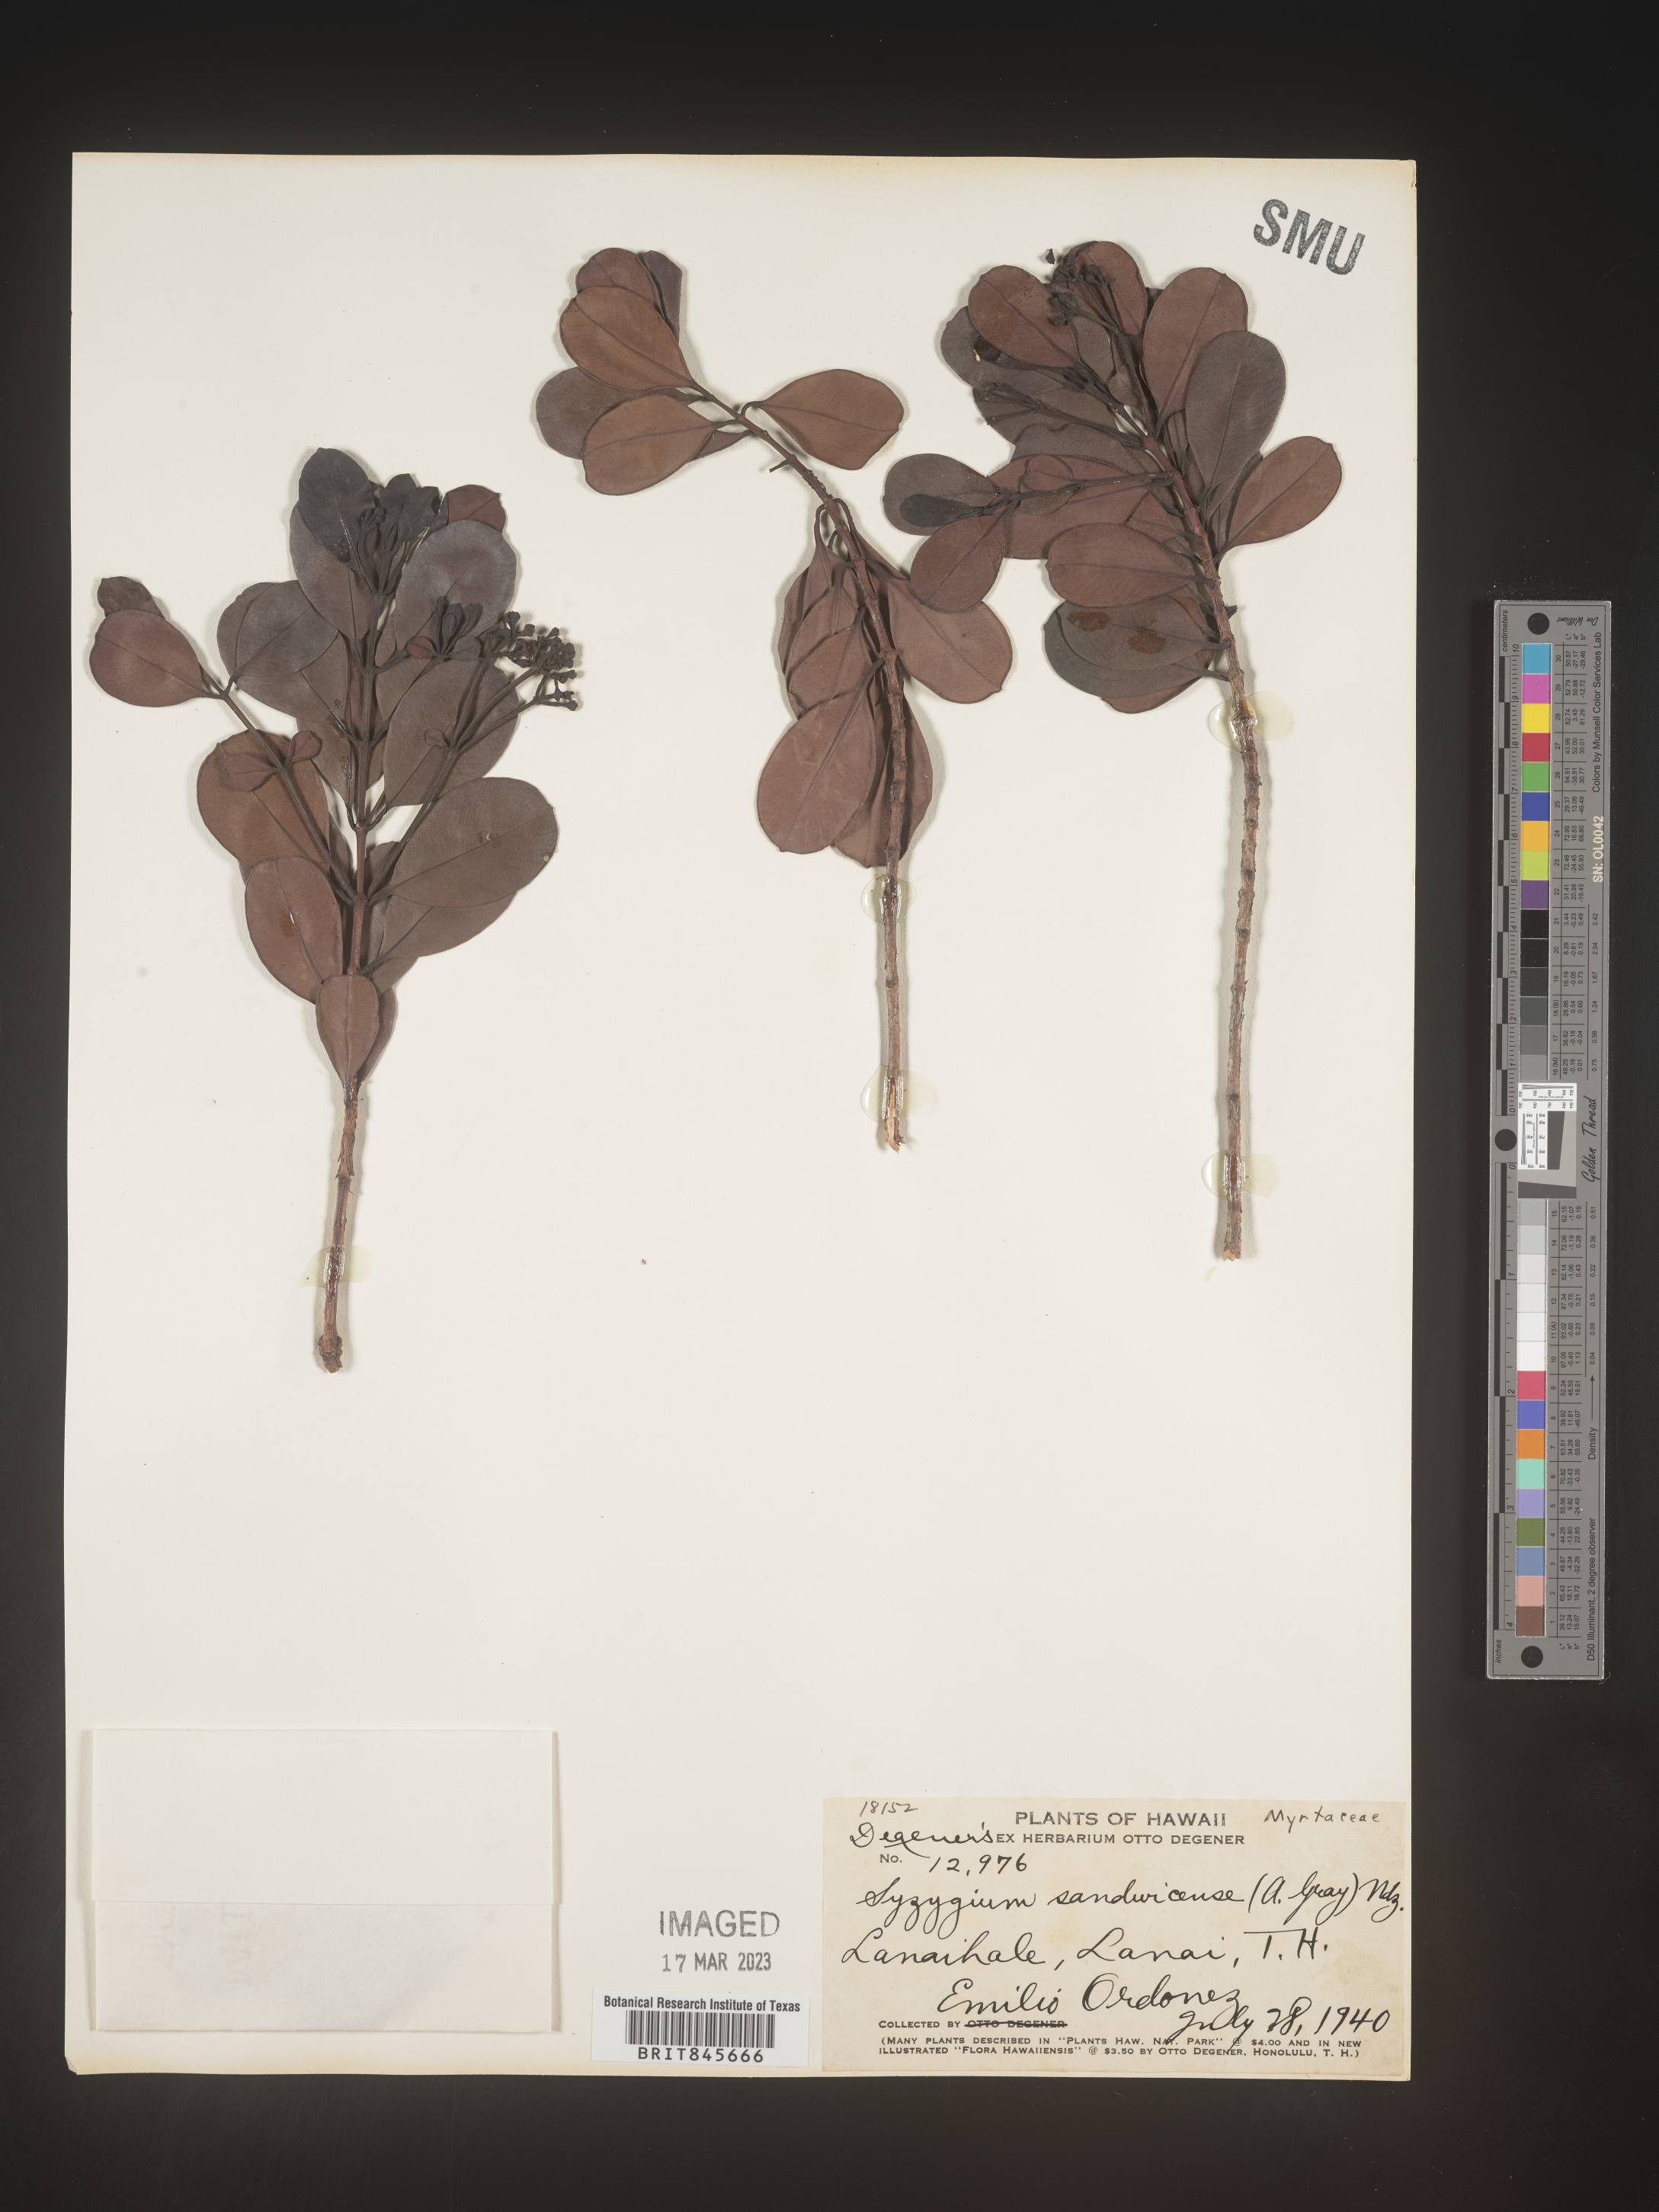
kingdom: Plantae
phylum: Tracheophyta
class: Magnoliopsida
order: Myrtales
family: Myrtaceae
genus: Syzygium
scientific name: Syzygium
